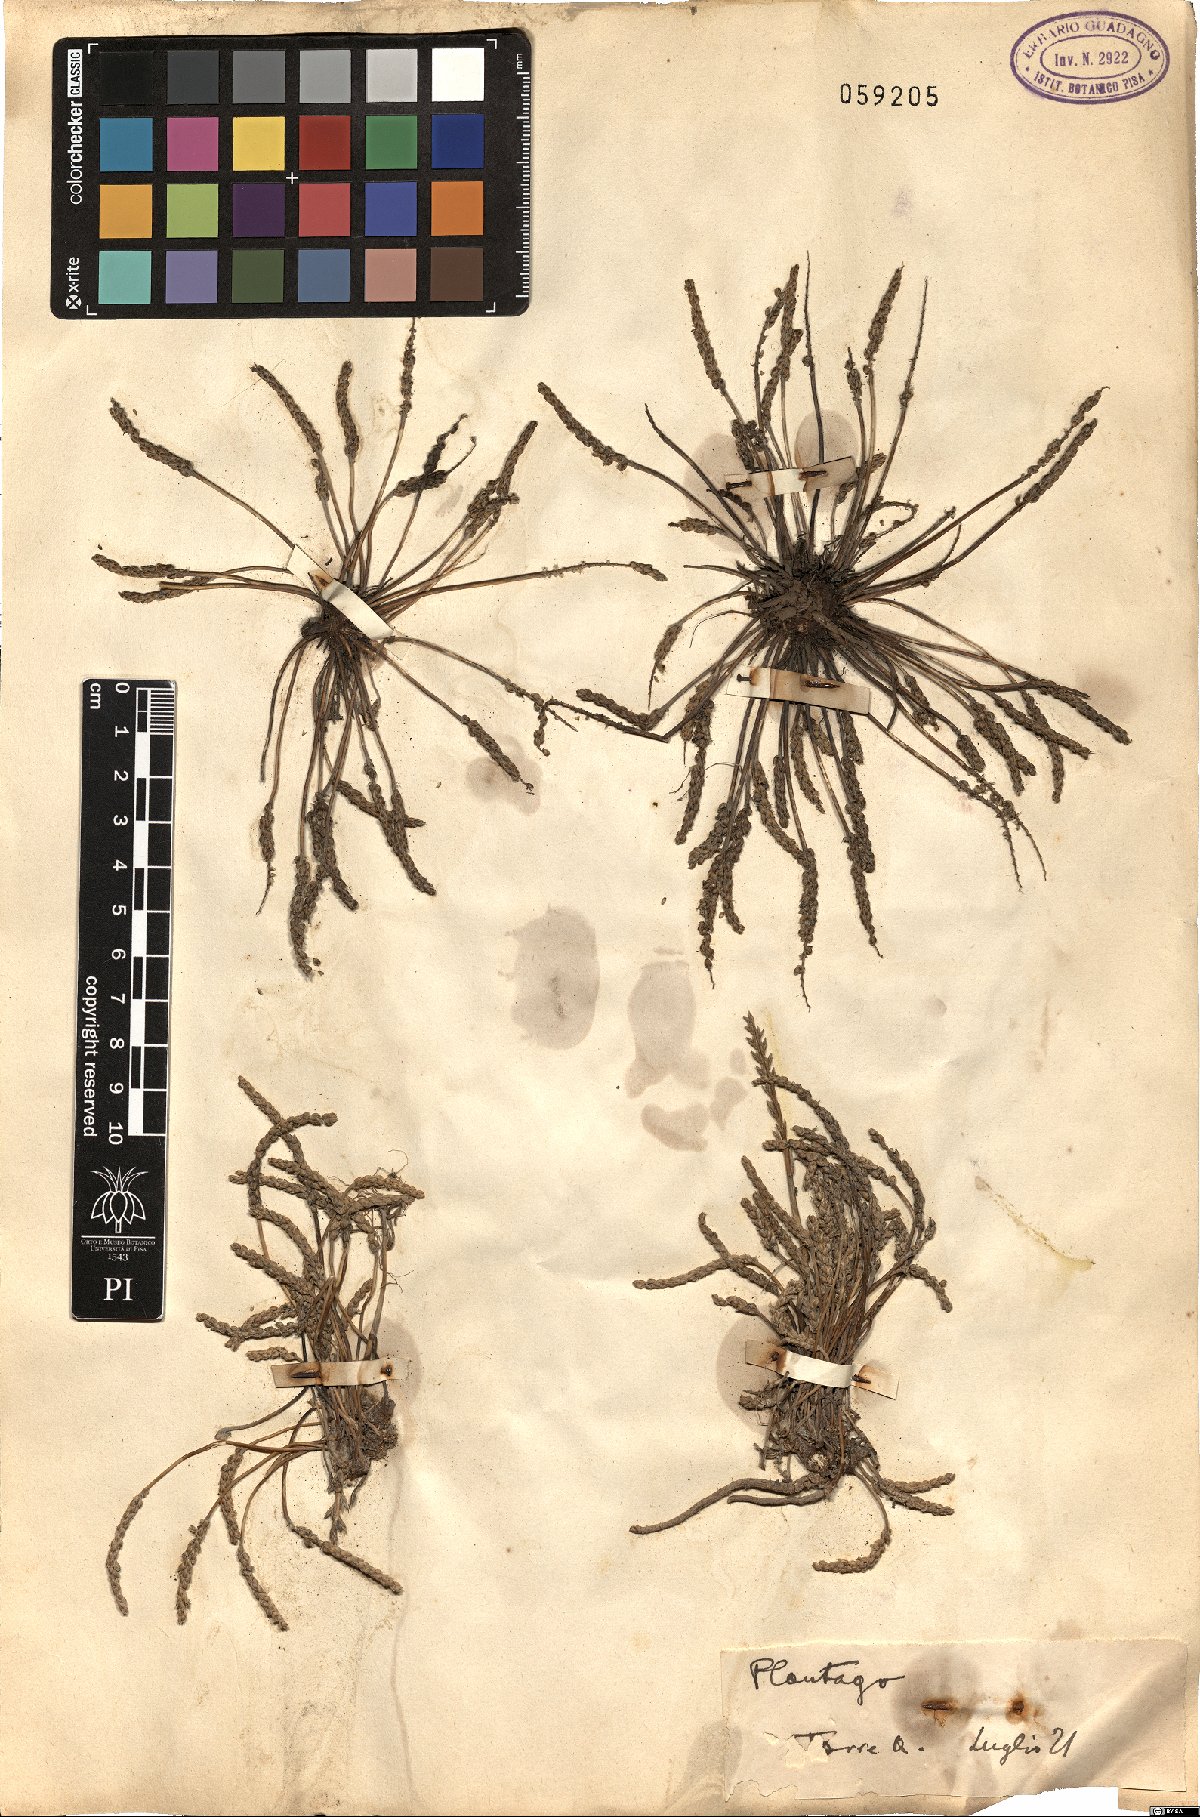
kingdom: Plantae
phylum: Tracheophyta
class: Magnoliopsida
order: Lamiales
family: Plantaginaceae
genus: Plantago
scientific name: Plantago
